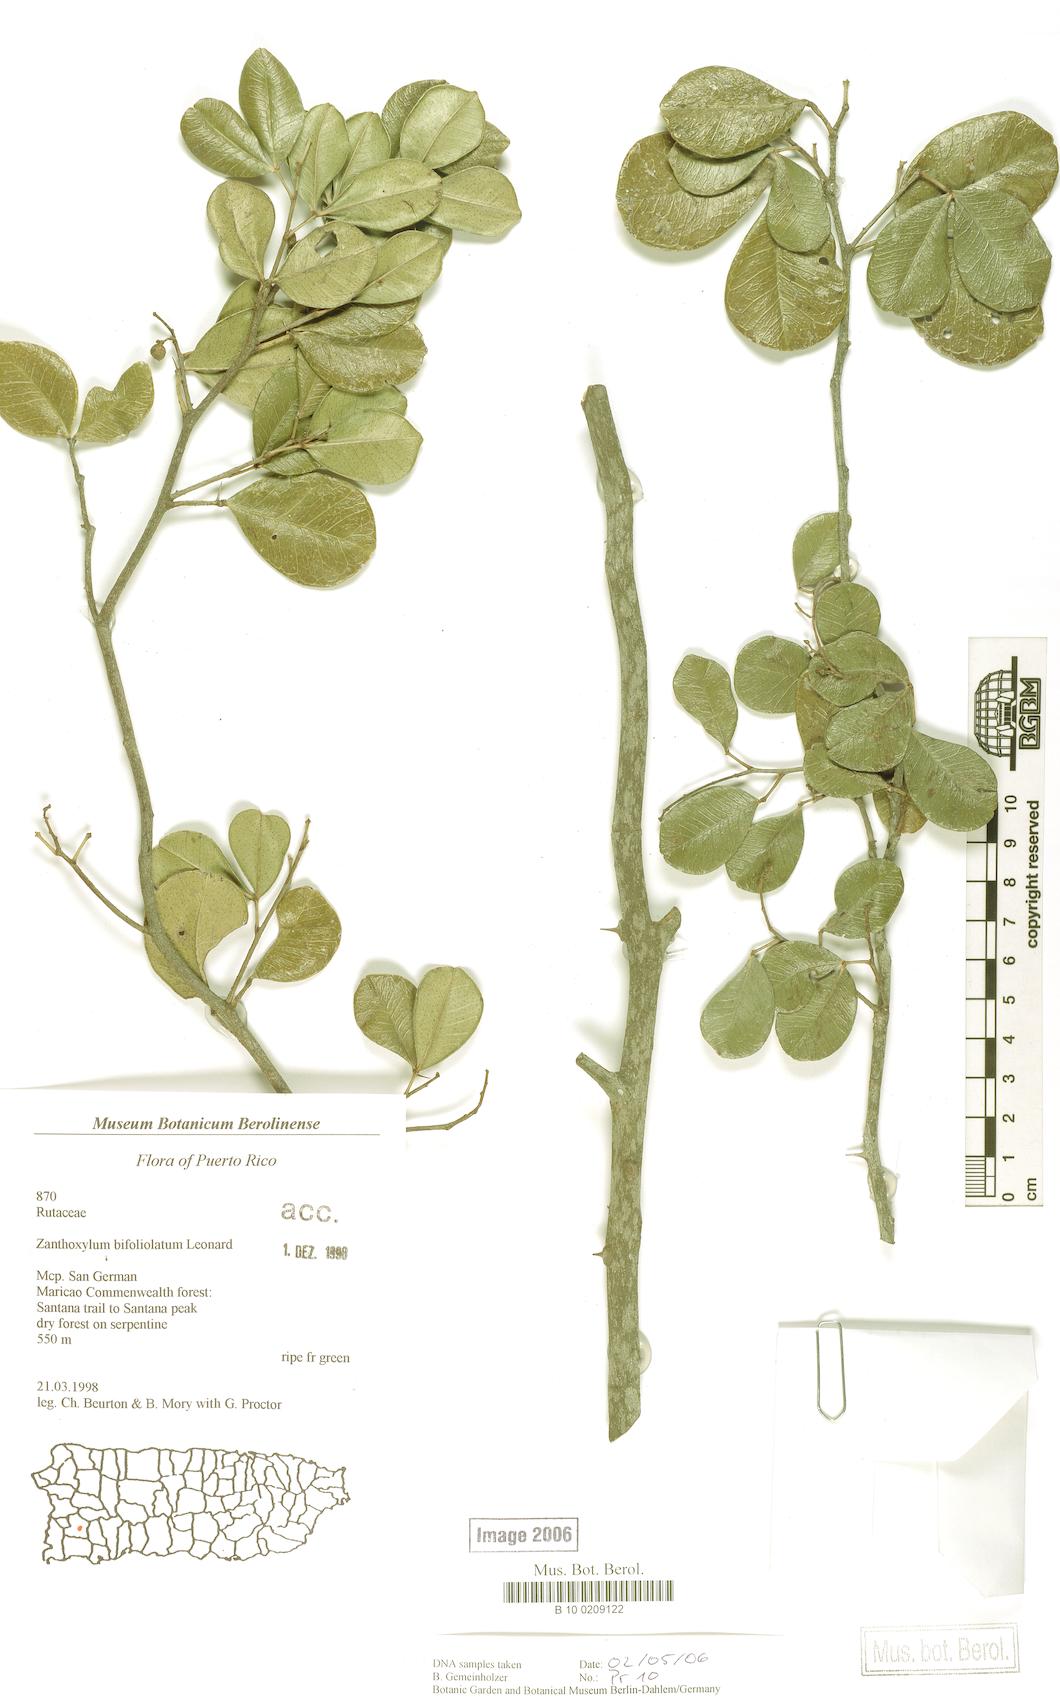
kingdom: Plantae
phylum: Tracheophyta
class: Magnoliopsida
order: Sapindales
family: Rutaceae
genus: Zanthoxylum
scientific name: Zanthoxylum bifoliolatum
